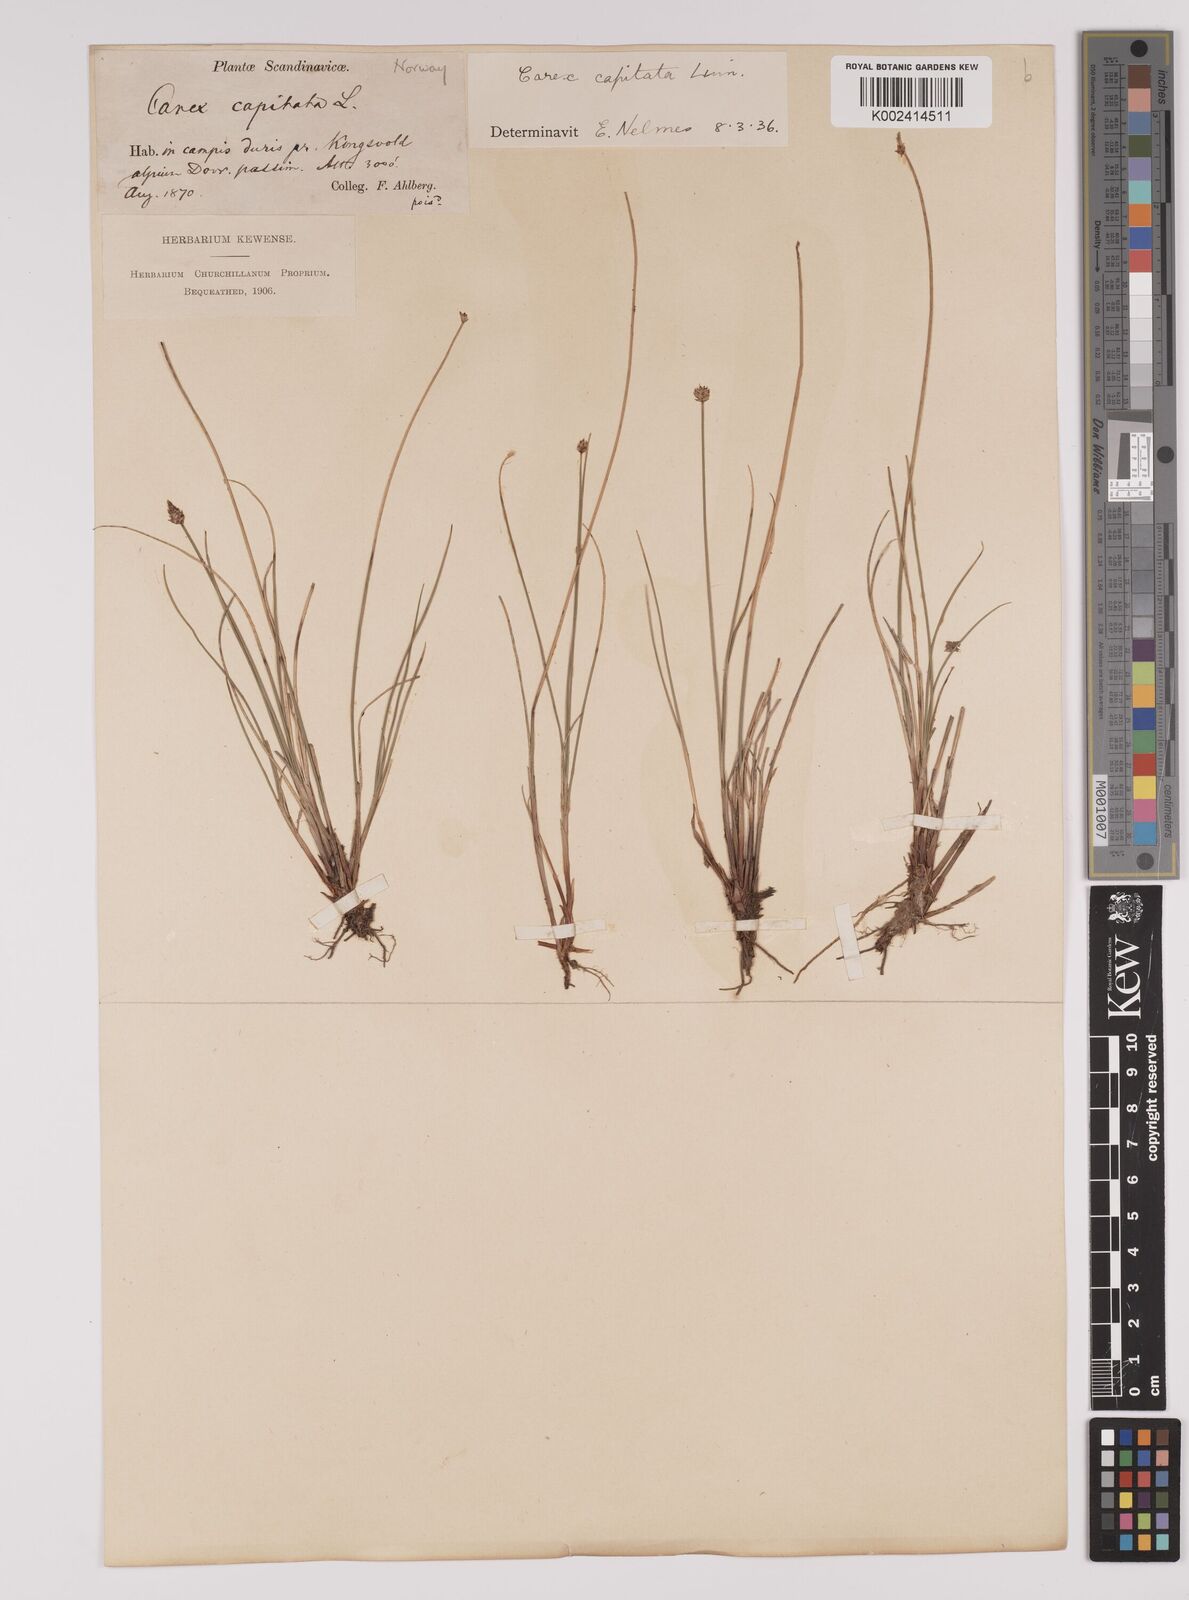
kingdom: Plantae
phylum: Tracheophyta
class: Liliopsida
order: Poales
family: Cyperaceae
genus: Carex
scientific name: Carex capitata
